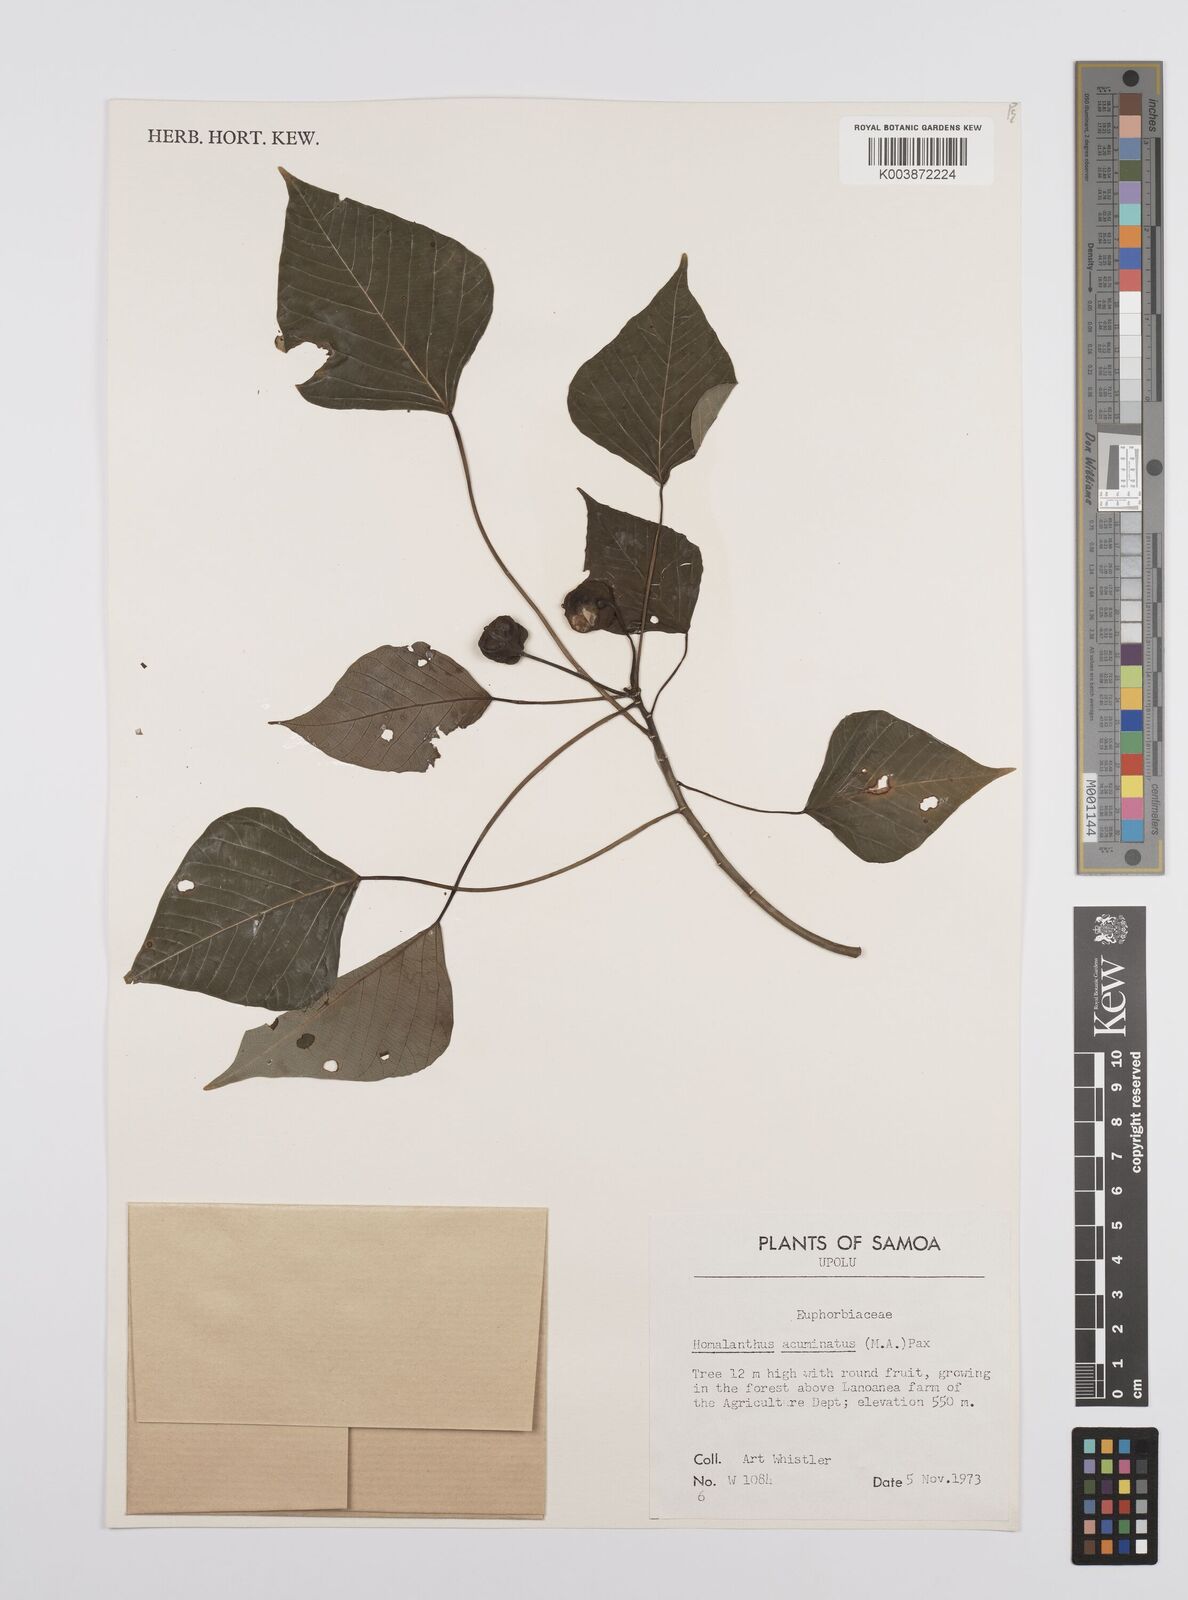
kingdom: Plantae
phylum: Tracheophyta
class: Magnoliopsida
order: Malpighiales
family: Euphorbiaceae
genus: Homalanthus
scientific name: Homalanthus acuminatus
